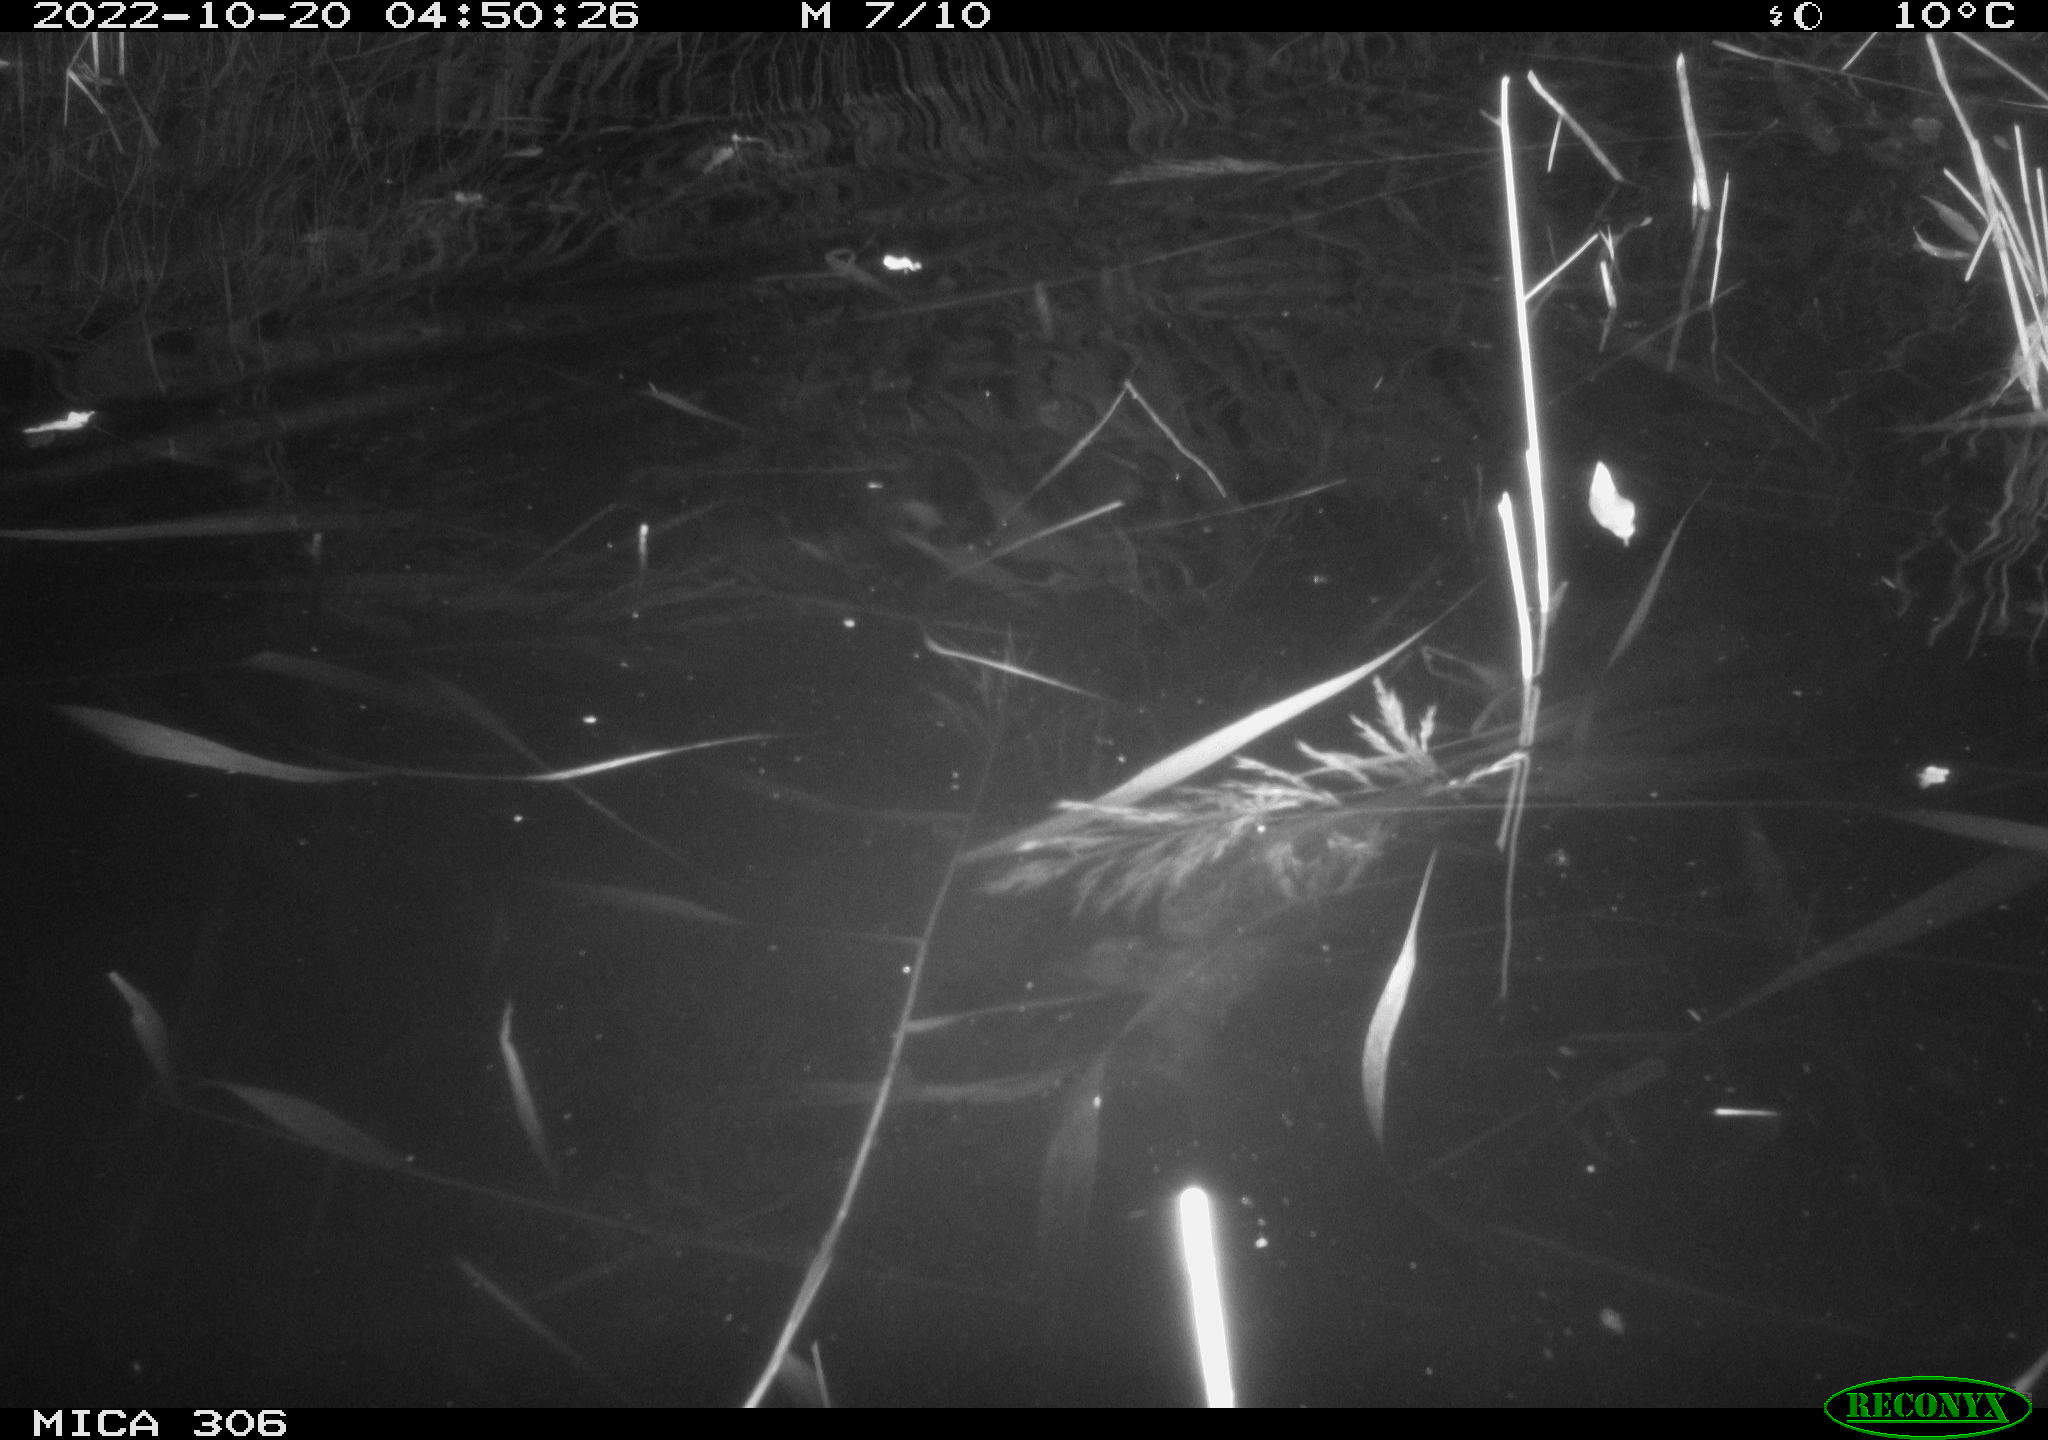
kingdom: Animalia
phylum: Chordata
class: Mammalia
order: Rodentia
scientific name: Rodentia
